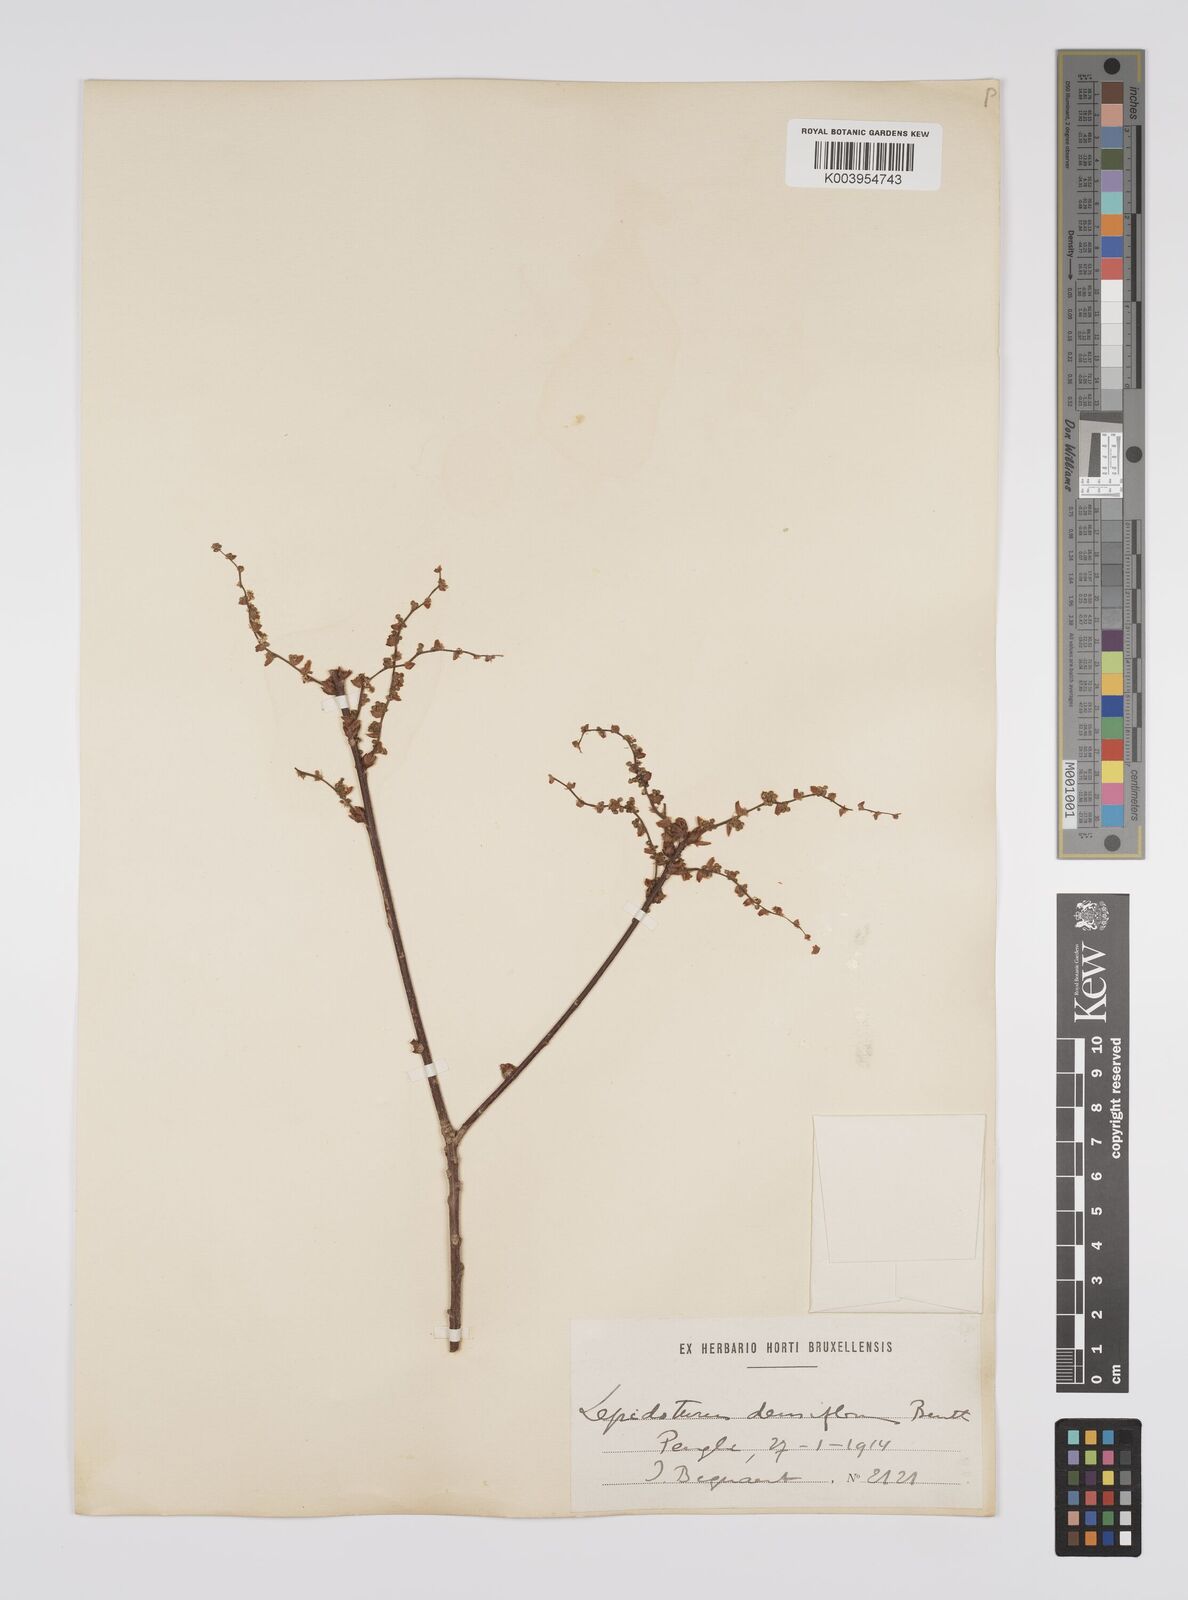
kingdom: Plantae
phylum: Tracheophyta
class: Magnoliopsida
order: Malpighiales
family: Euphorbiaceae
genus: Alchornea
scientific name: Alchornea laxiflora
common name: Lowveld bead-string
